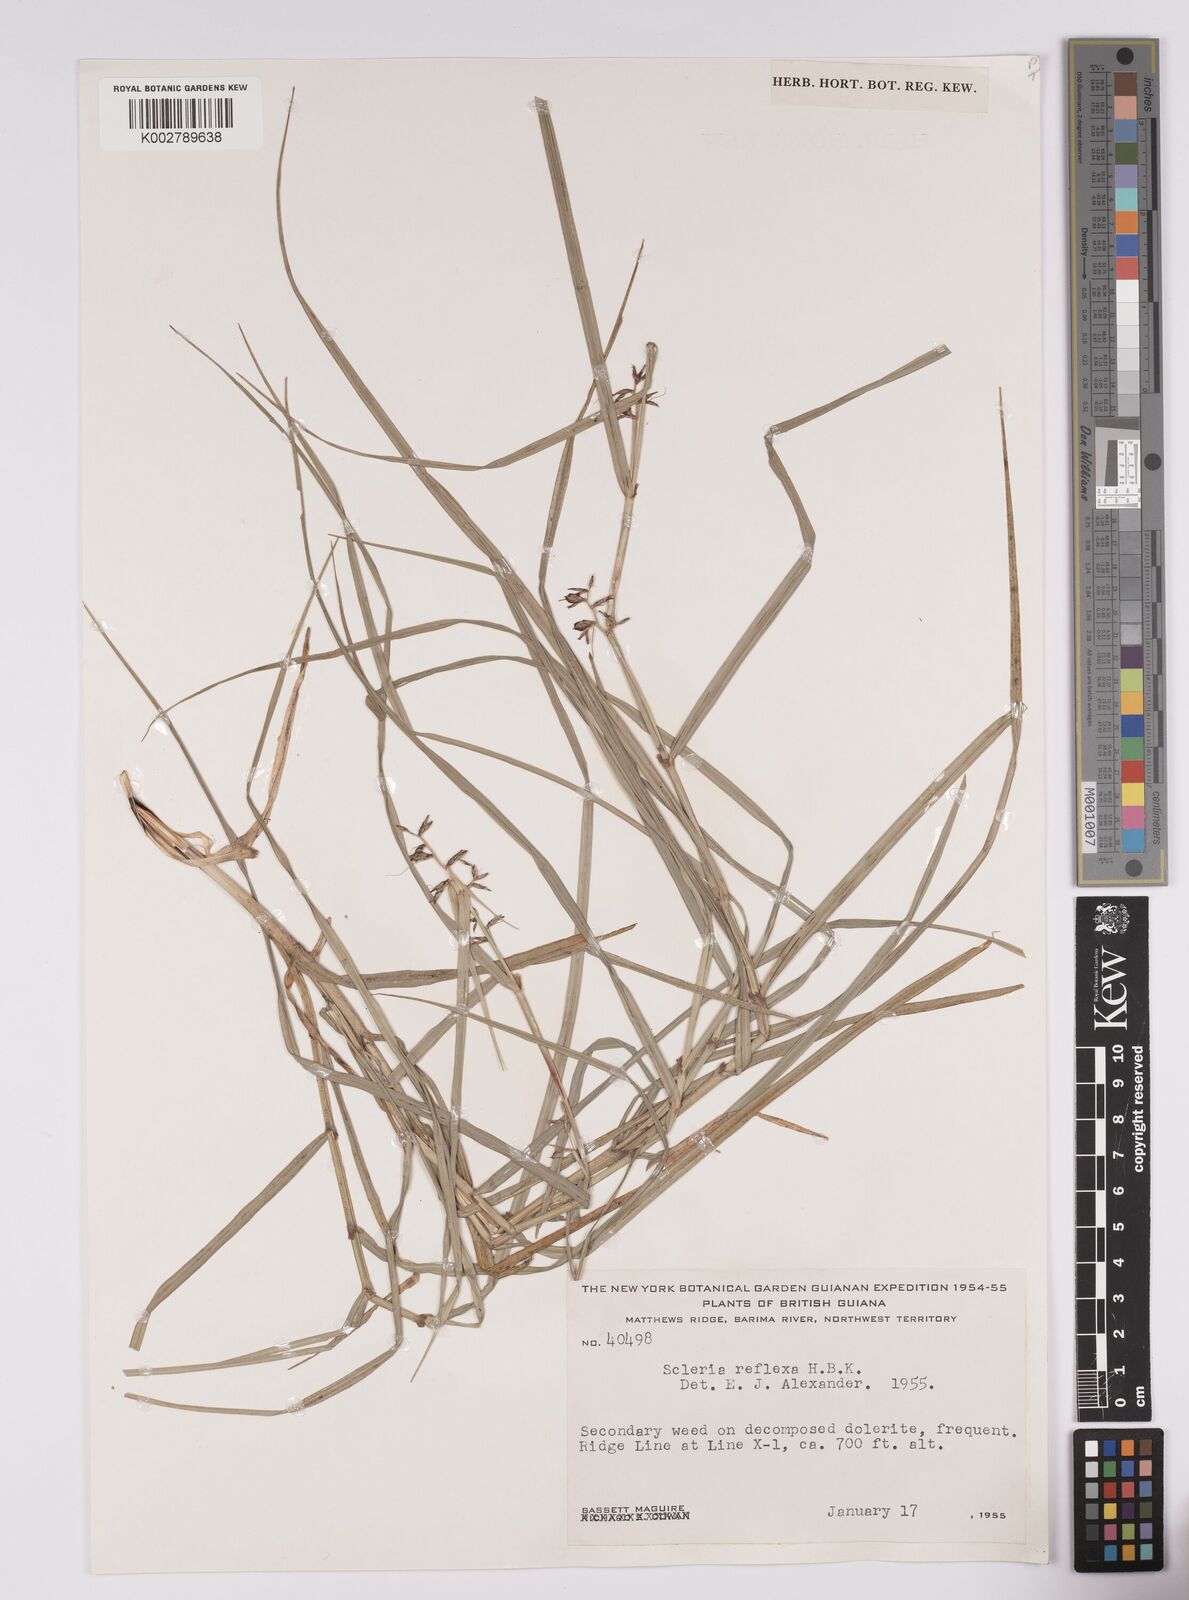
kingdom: Plantae
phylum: Tracheophyta
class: Liliopsida
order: Poales
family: Cyperaceae
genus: Scleria
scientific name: Scleria secans
